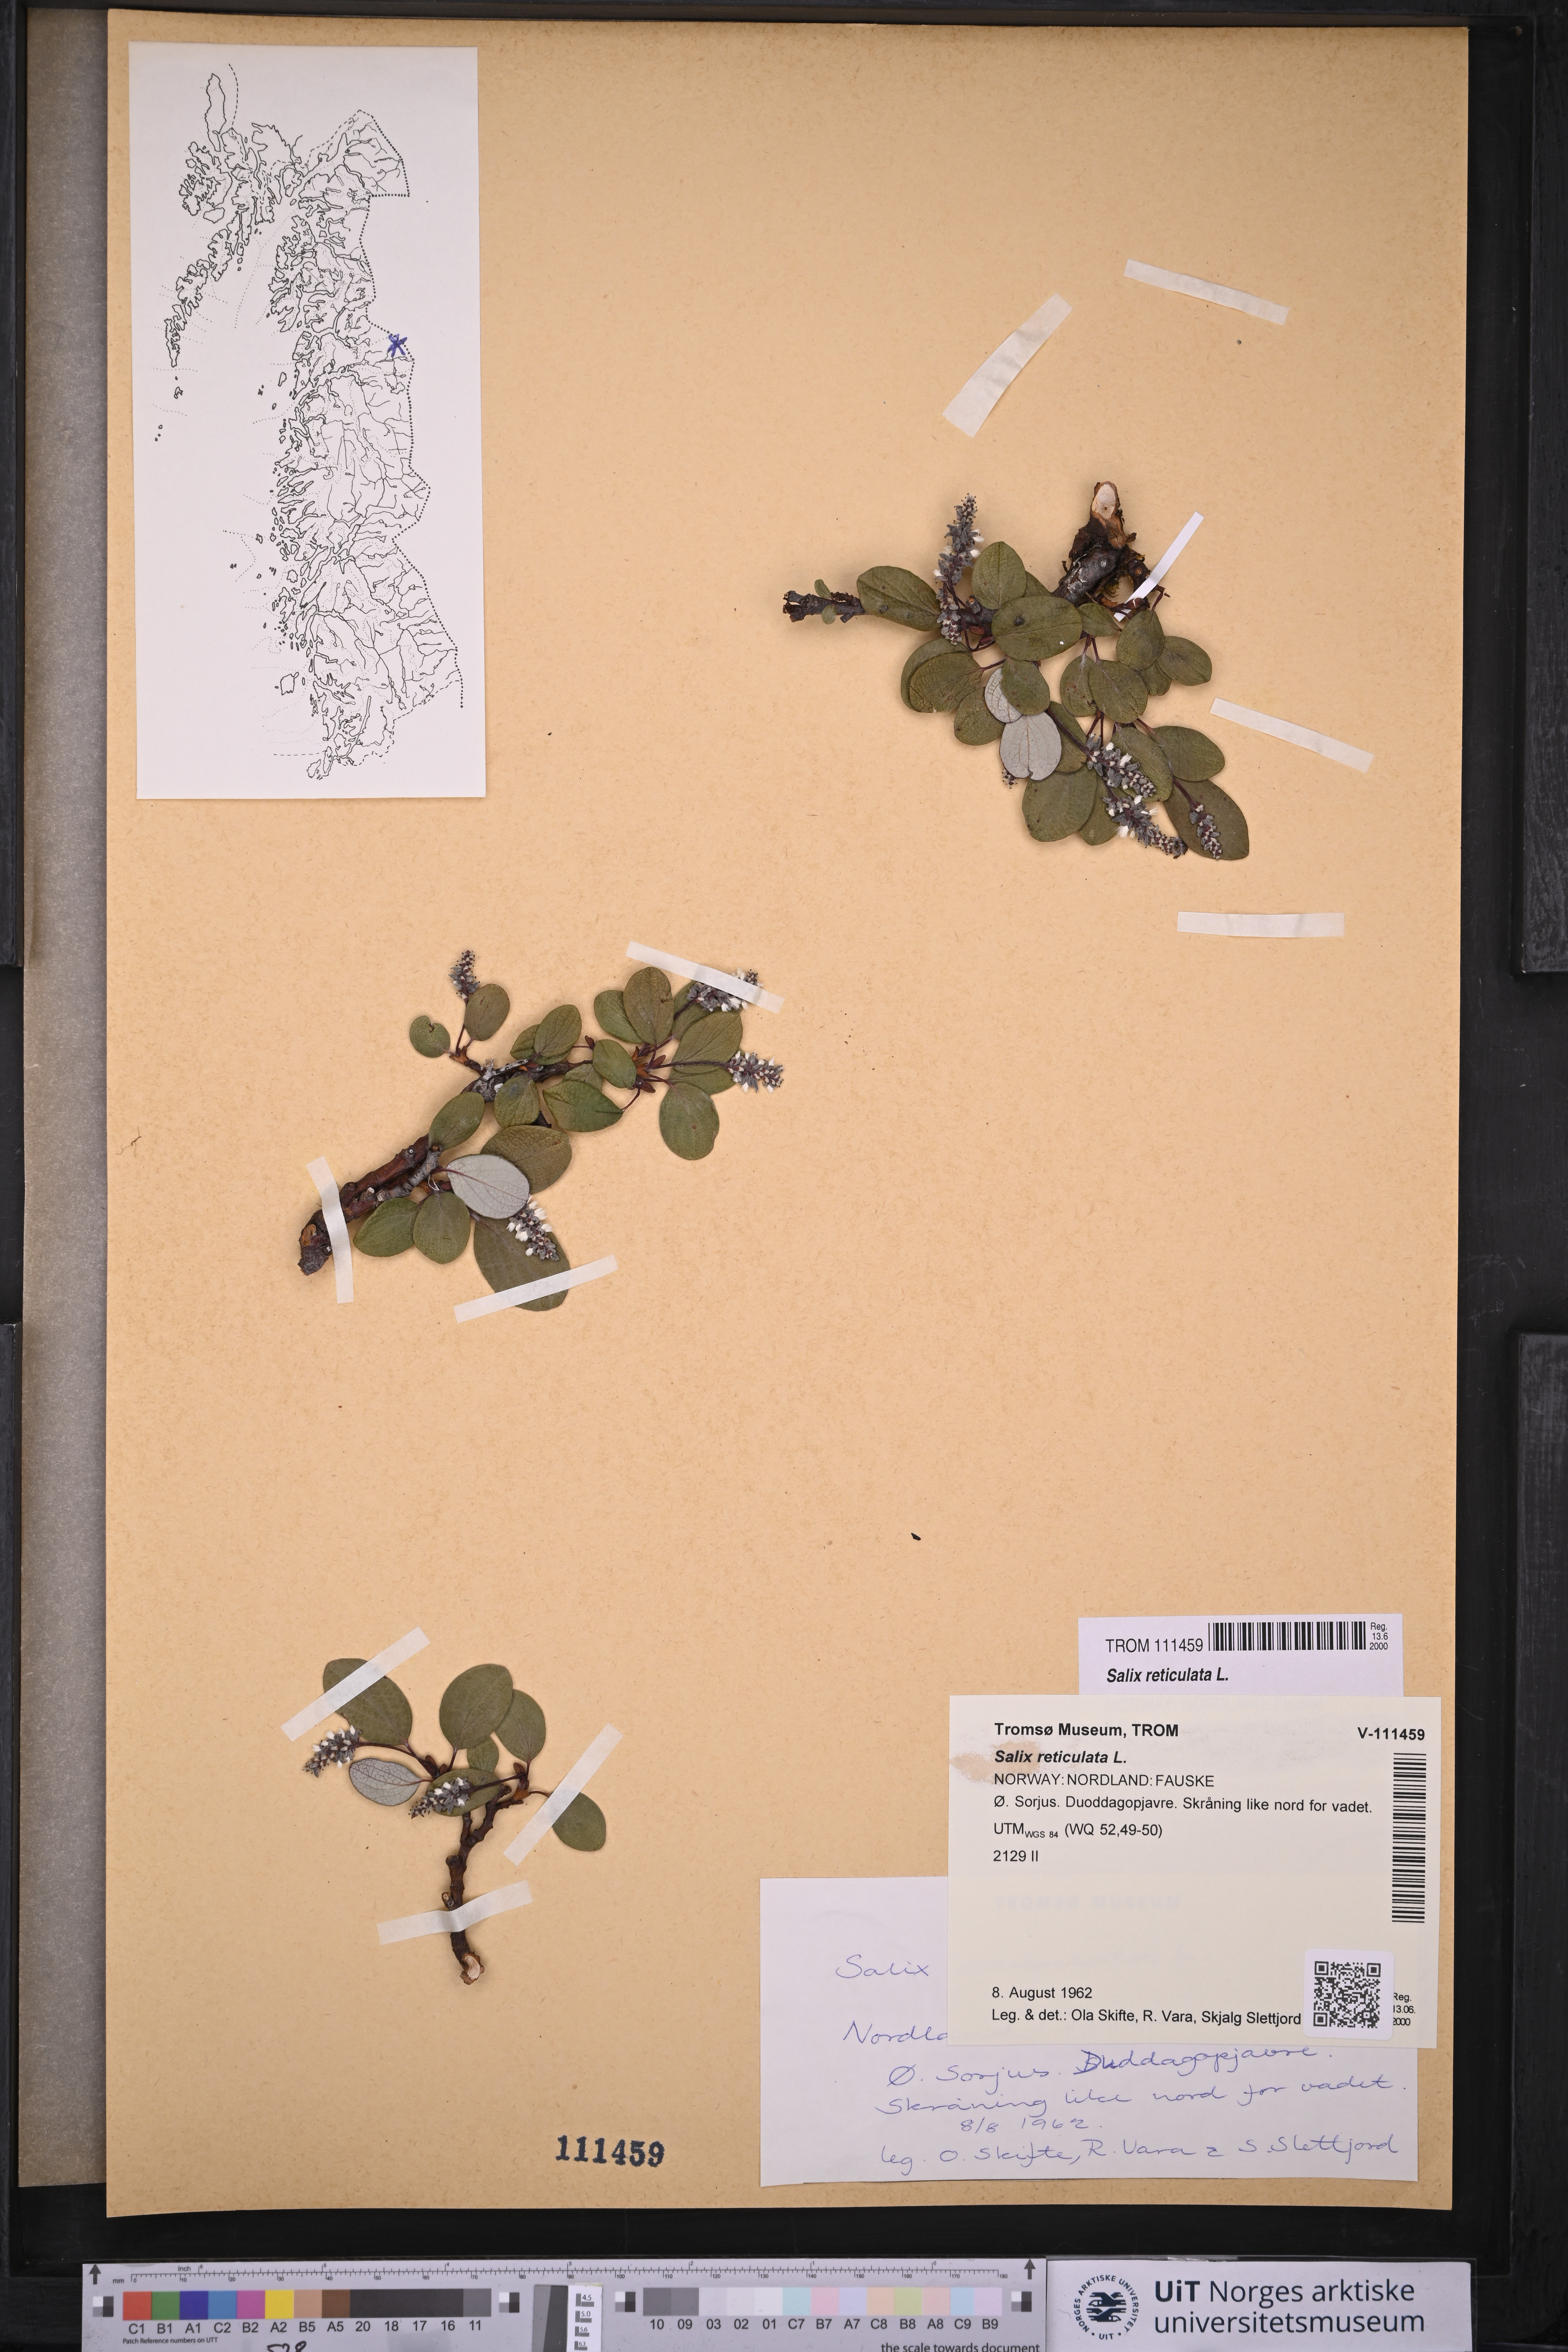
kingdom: Plantae
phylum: Tracheophyta
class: Magnoliopsida
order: Malpighiales
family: Salicaceae
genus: Salix
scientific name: Salix reticulata
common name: Net-leaved willow
